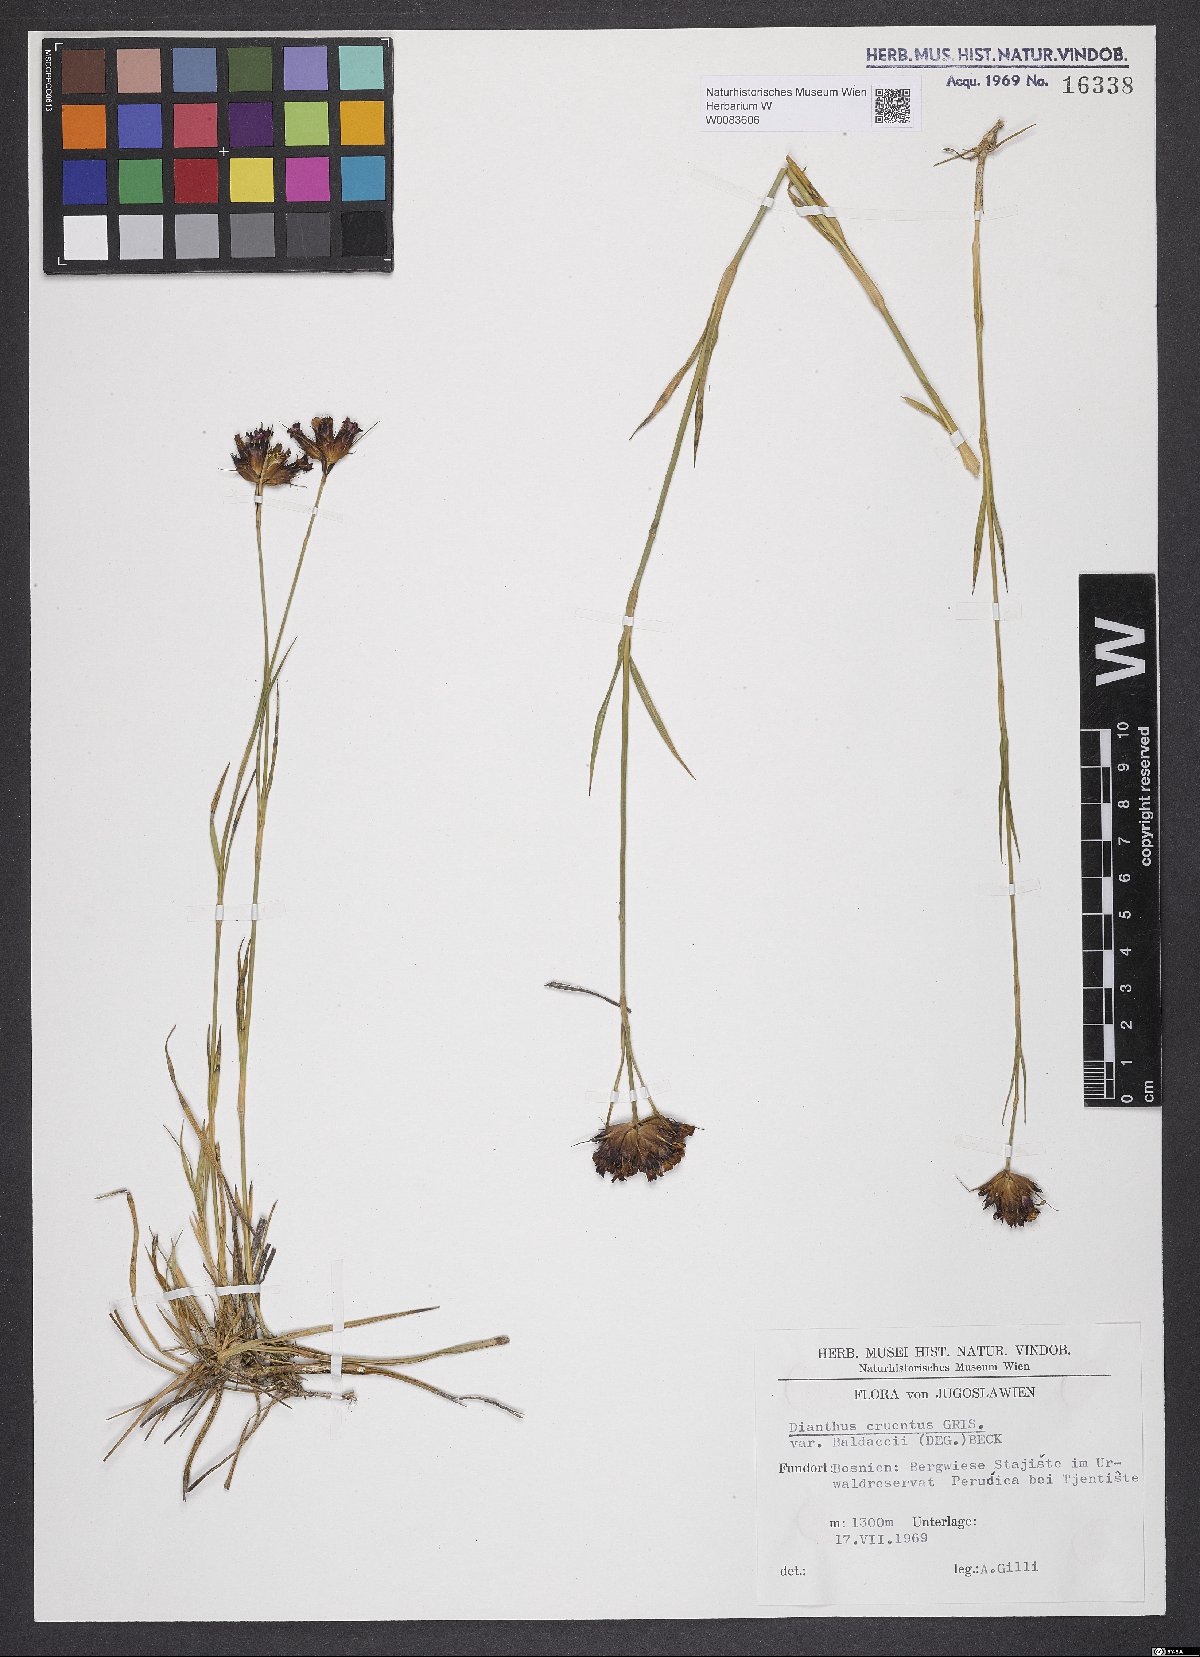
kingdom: Plantae
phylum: Tracheophyta
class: Magnoliopsida
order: Caryophyllales
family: Caryophyllaceae
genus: Dianthus
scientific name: Dianthus cruentus
